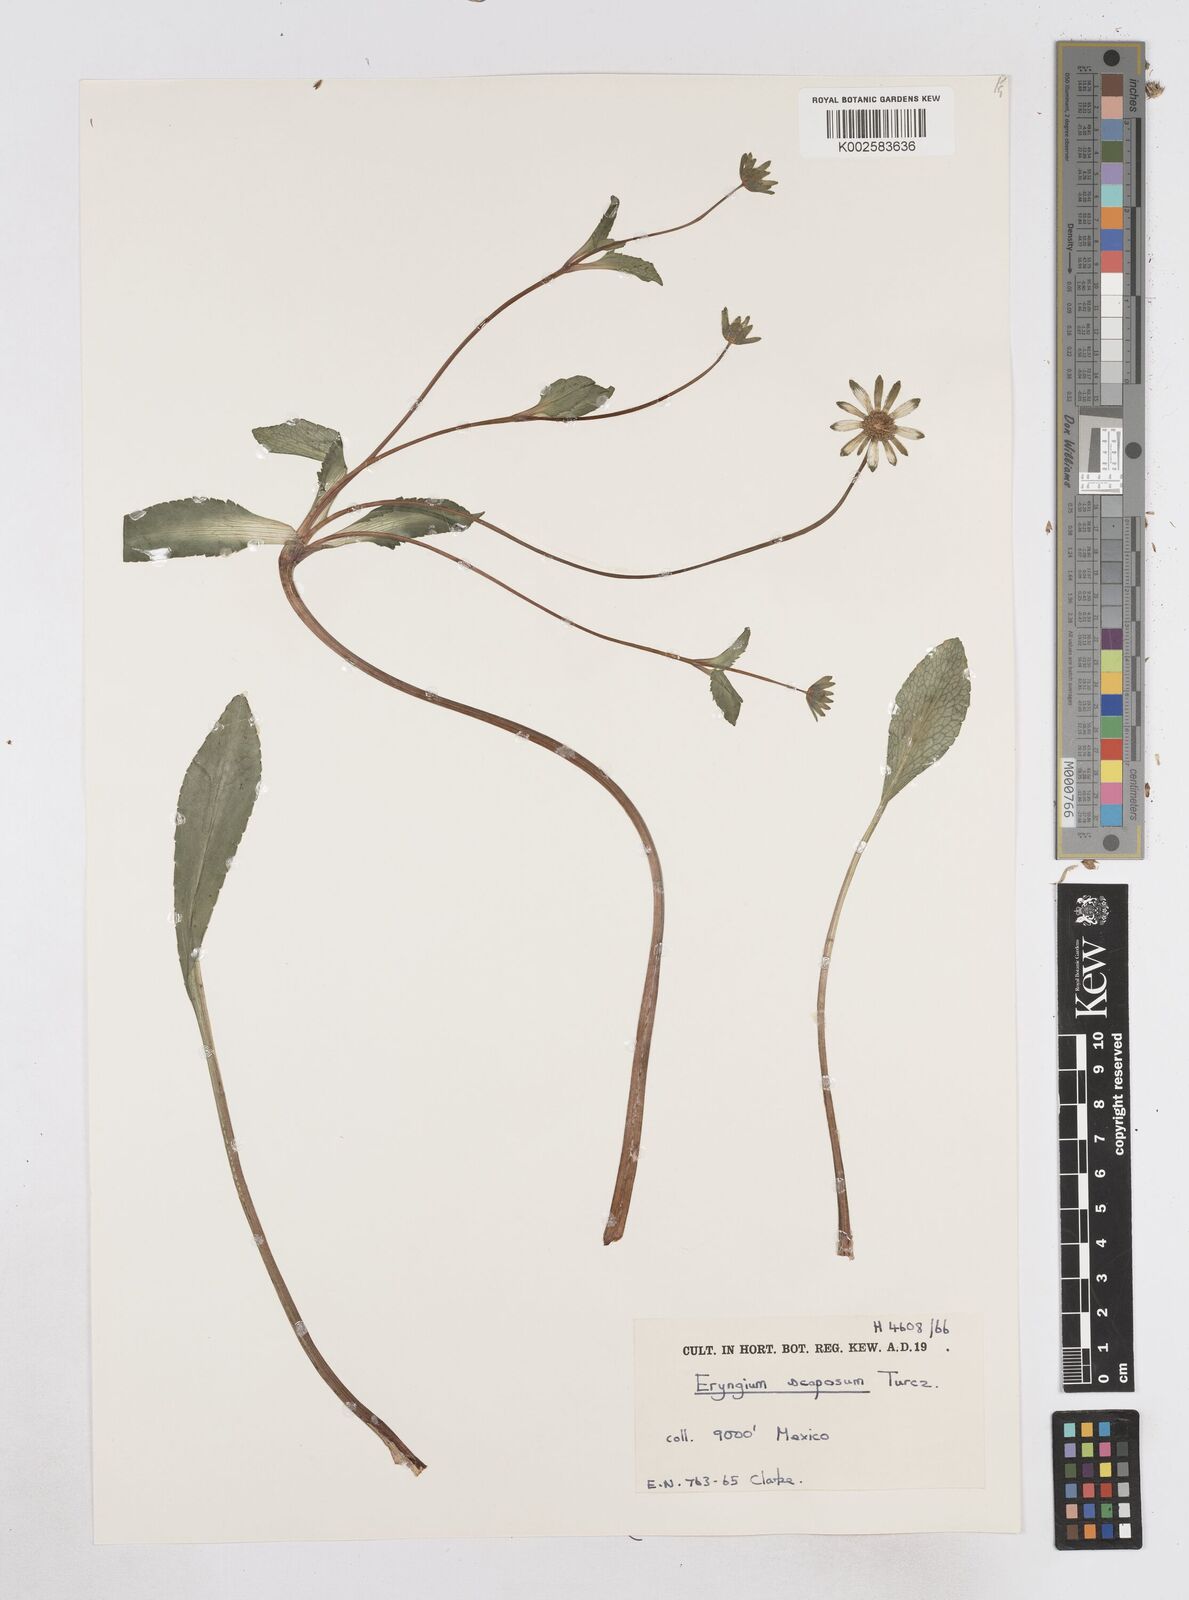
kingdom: Plantae
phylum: Tracheophyta
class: Magnoliopsida
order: Apiales
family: Apiaceae
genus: Eryngium
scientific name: Eryngium scaposum
